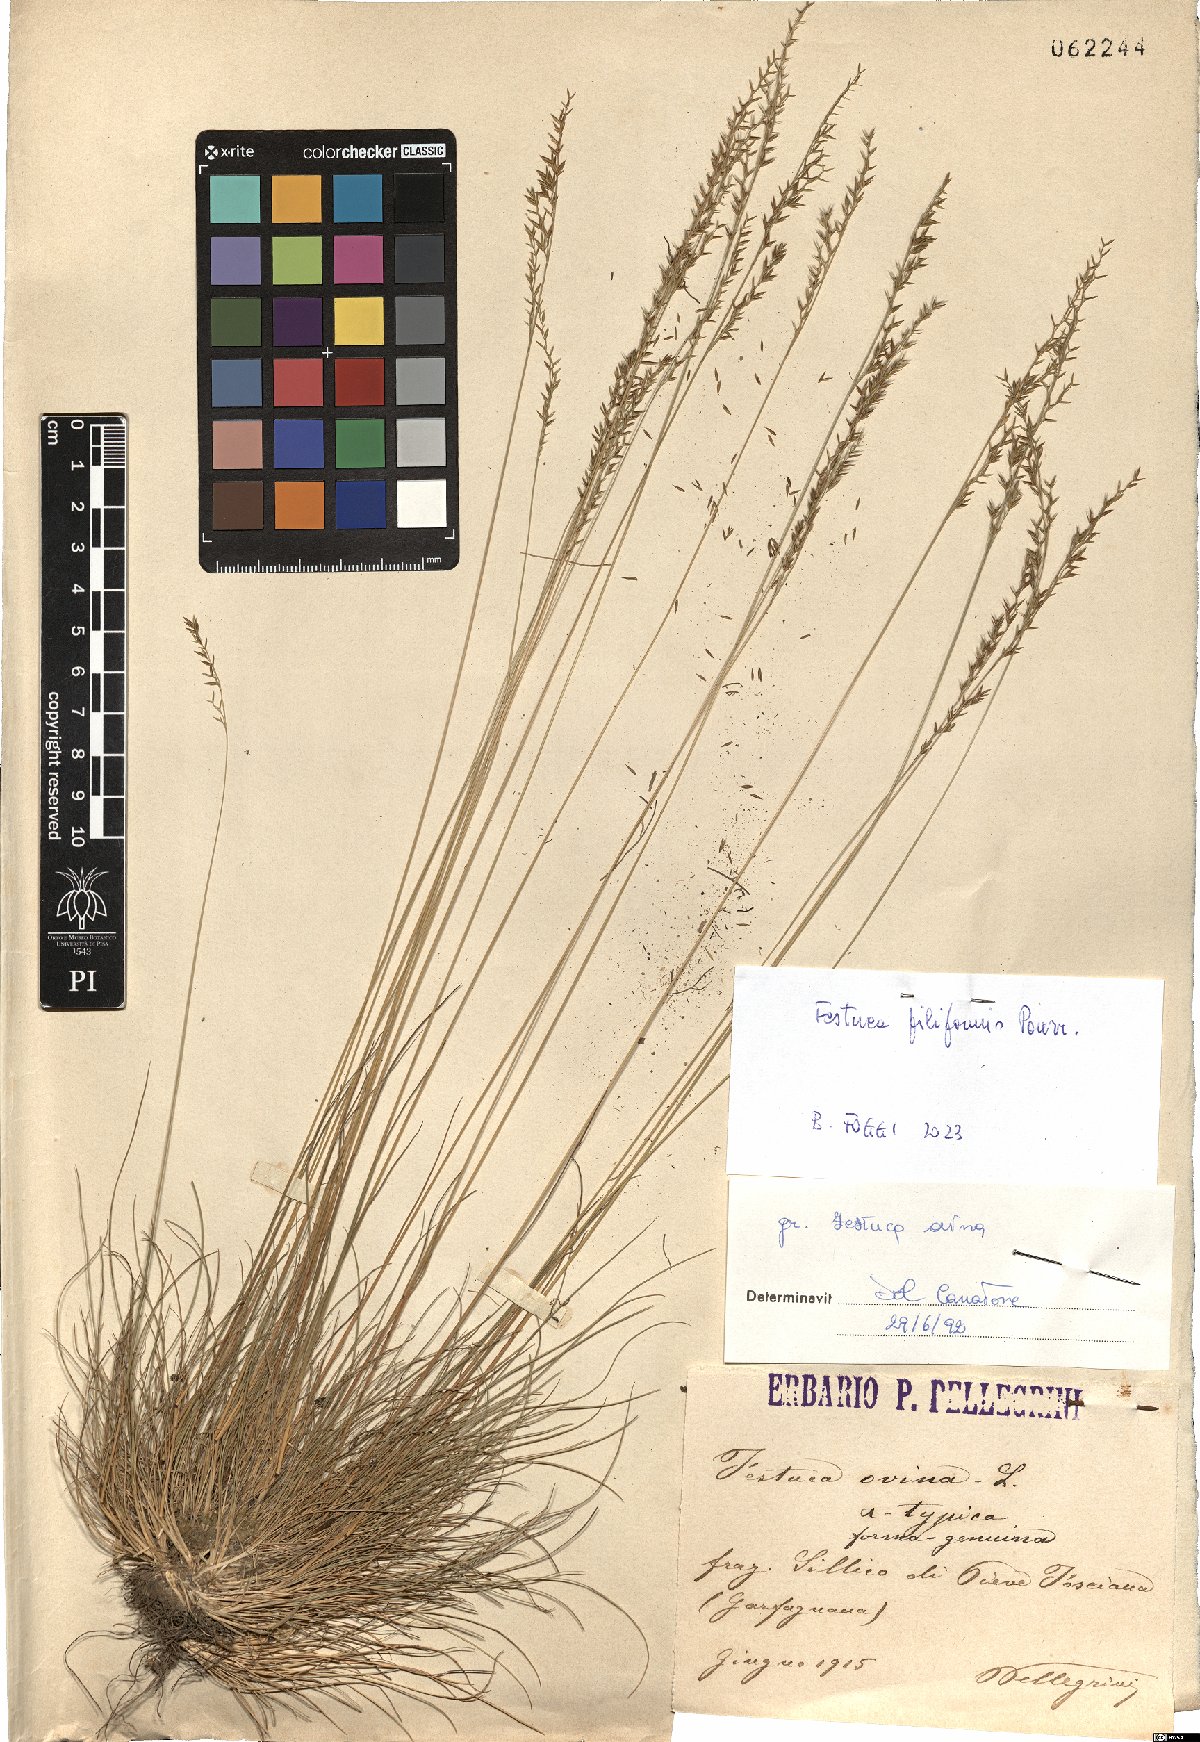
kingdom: Plantae
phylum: Tracheophyta
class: Liliopsida
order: Poales
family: Poaceae
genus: Festuca
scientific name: Festuca filiformis
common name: Fine-leaved sheep's-fescue
